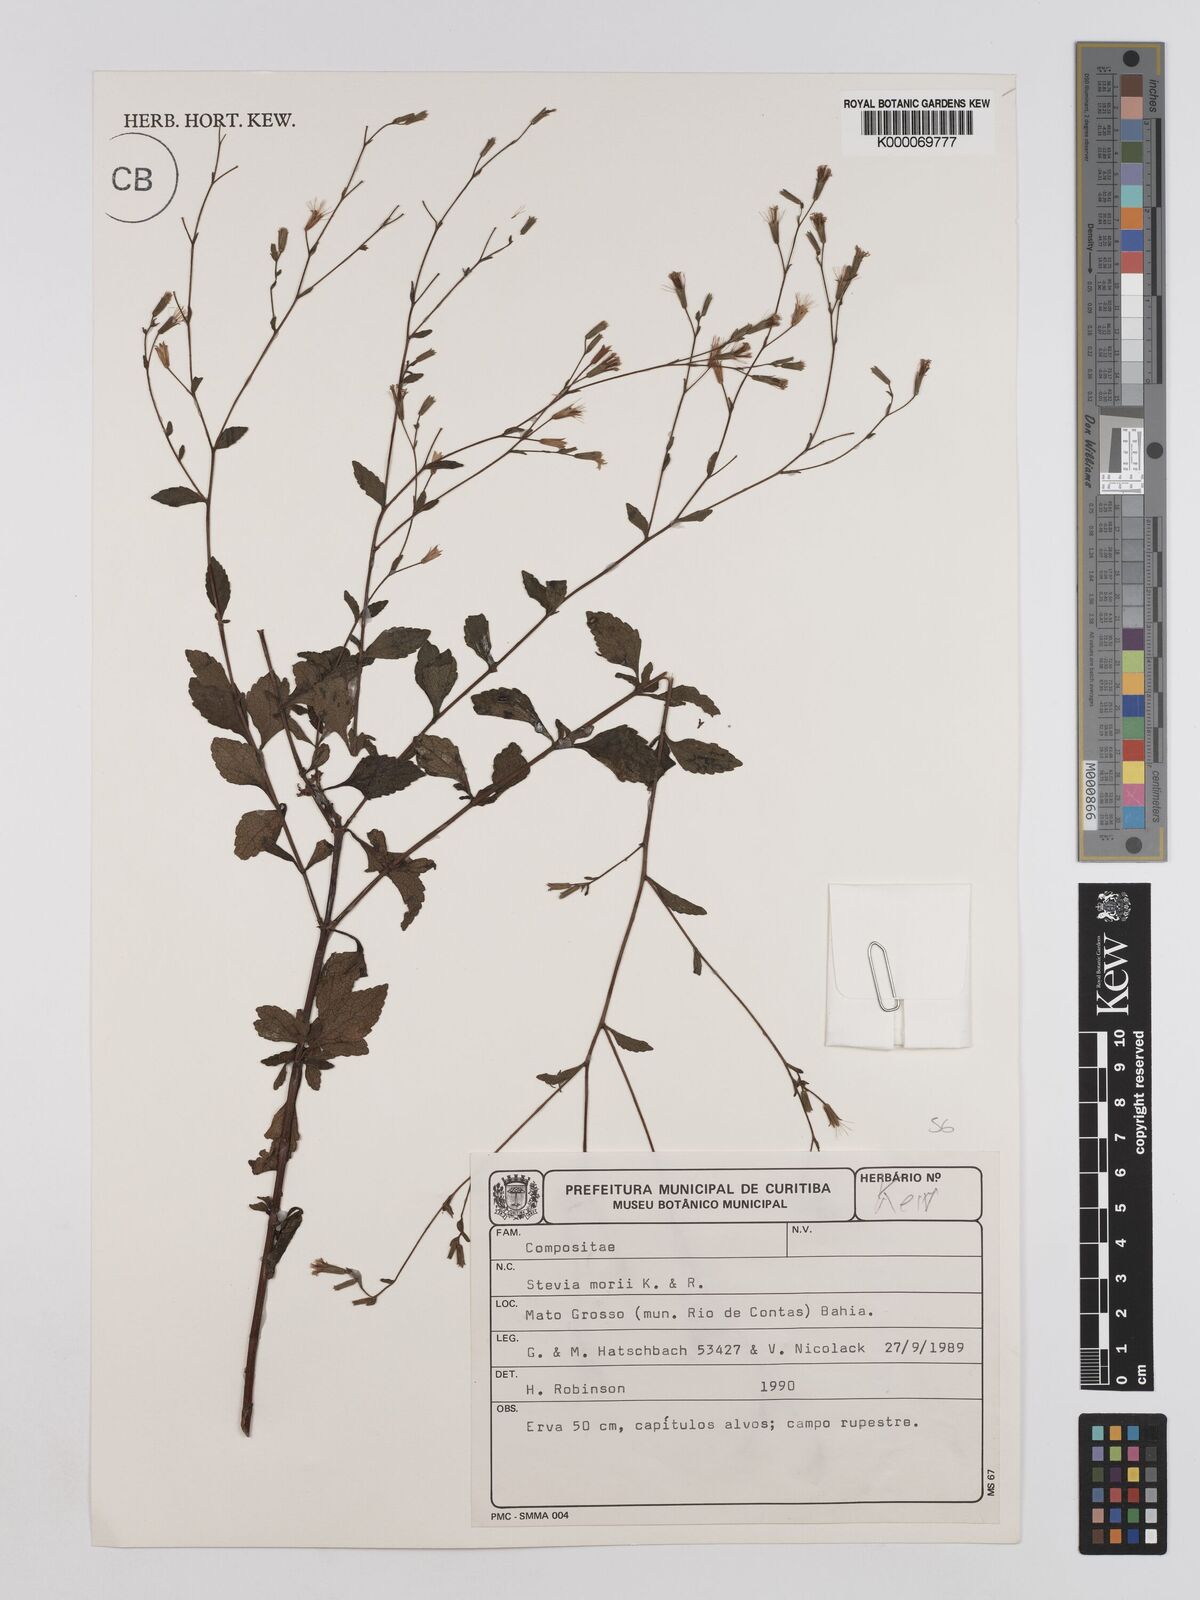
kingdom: Plantae
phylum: Tracheophyta
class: Magnoliopsida
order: Asterales
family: Asteraceae
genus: Stevia
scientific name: Stevia morii
